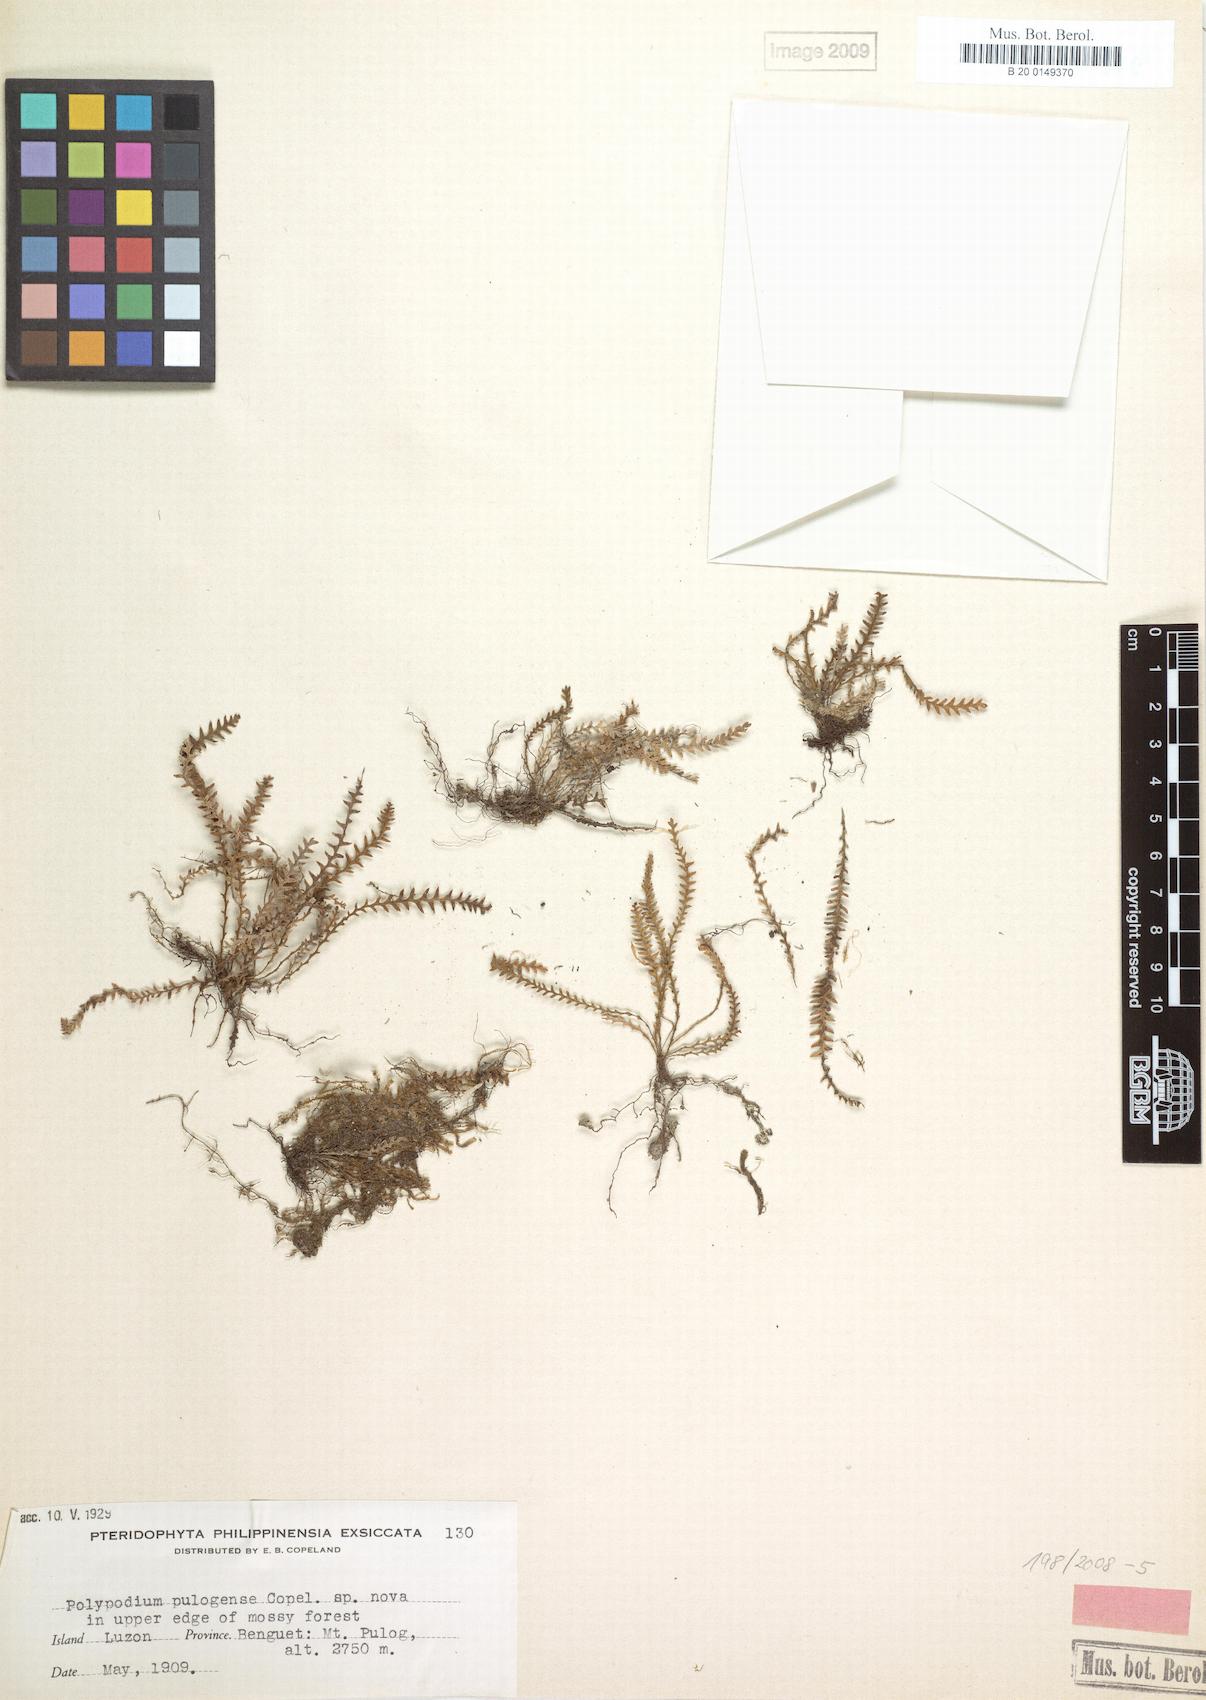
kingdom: Plantae
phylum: Tracheophyta
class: Polypodiopsida
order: Polypodiales
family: Polypodiaceae
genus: Micropolypodium
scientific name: Micropolypodium pulogense
